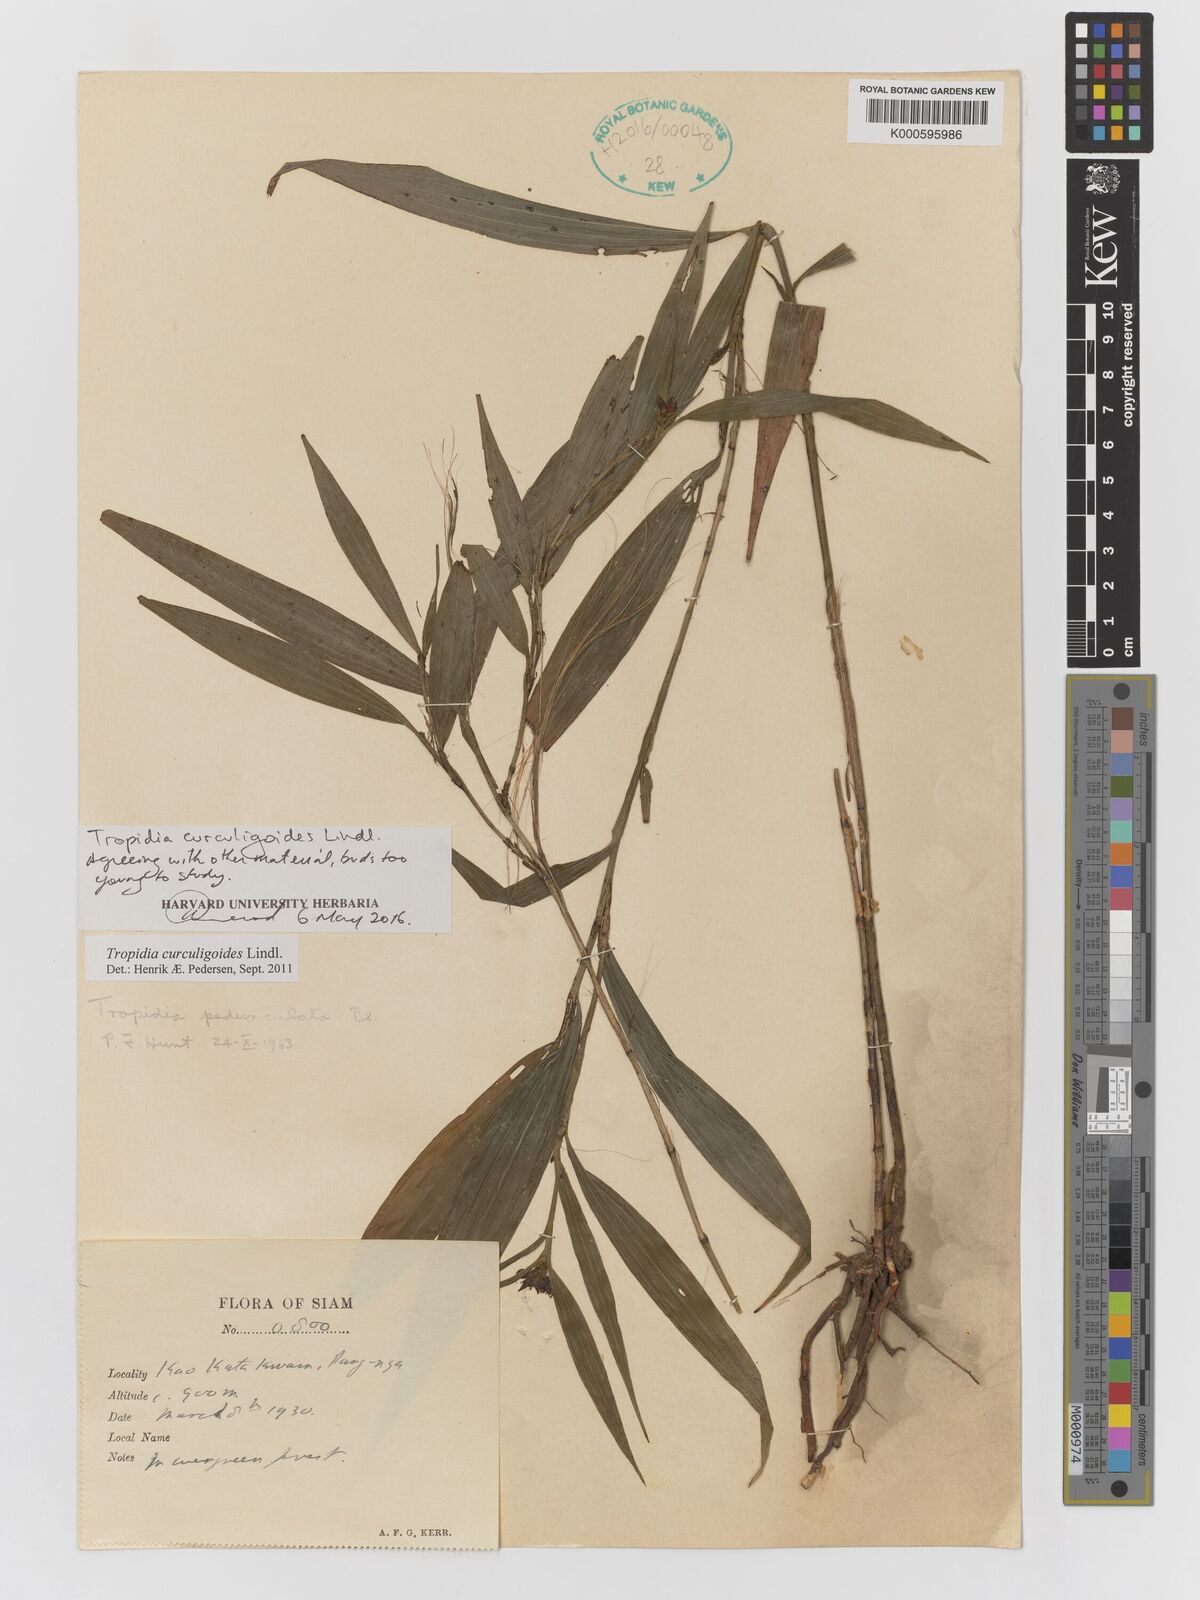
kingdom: Plantae
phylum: Tracheophyta
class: Liliopsida
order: Asparagales
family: Orchidaceae
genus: Tropidia
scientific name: Tropidia curculigoides
